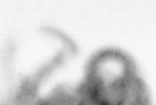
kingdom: Animalia
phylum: Arthropoda
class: Copepoda
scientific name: Copepoda
